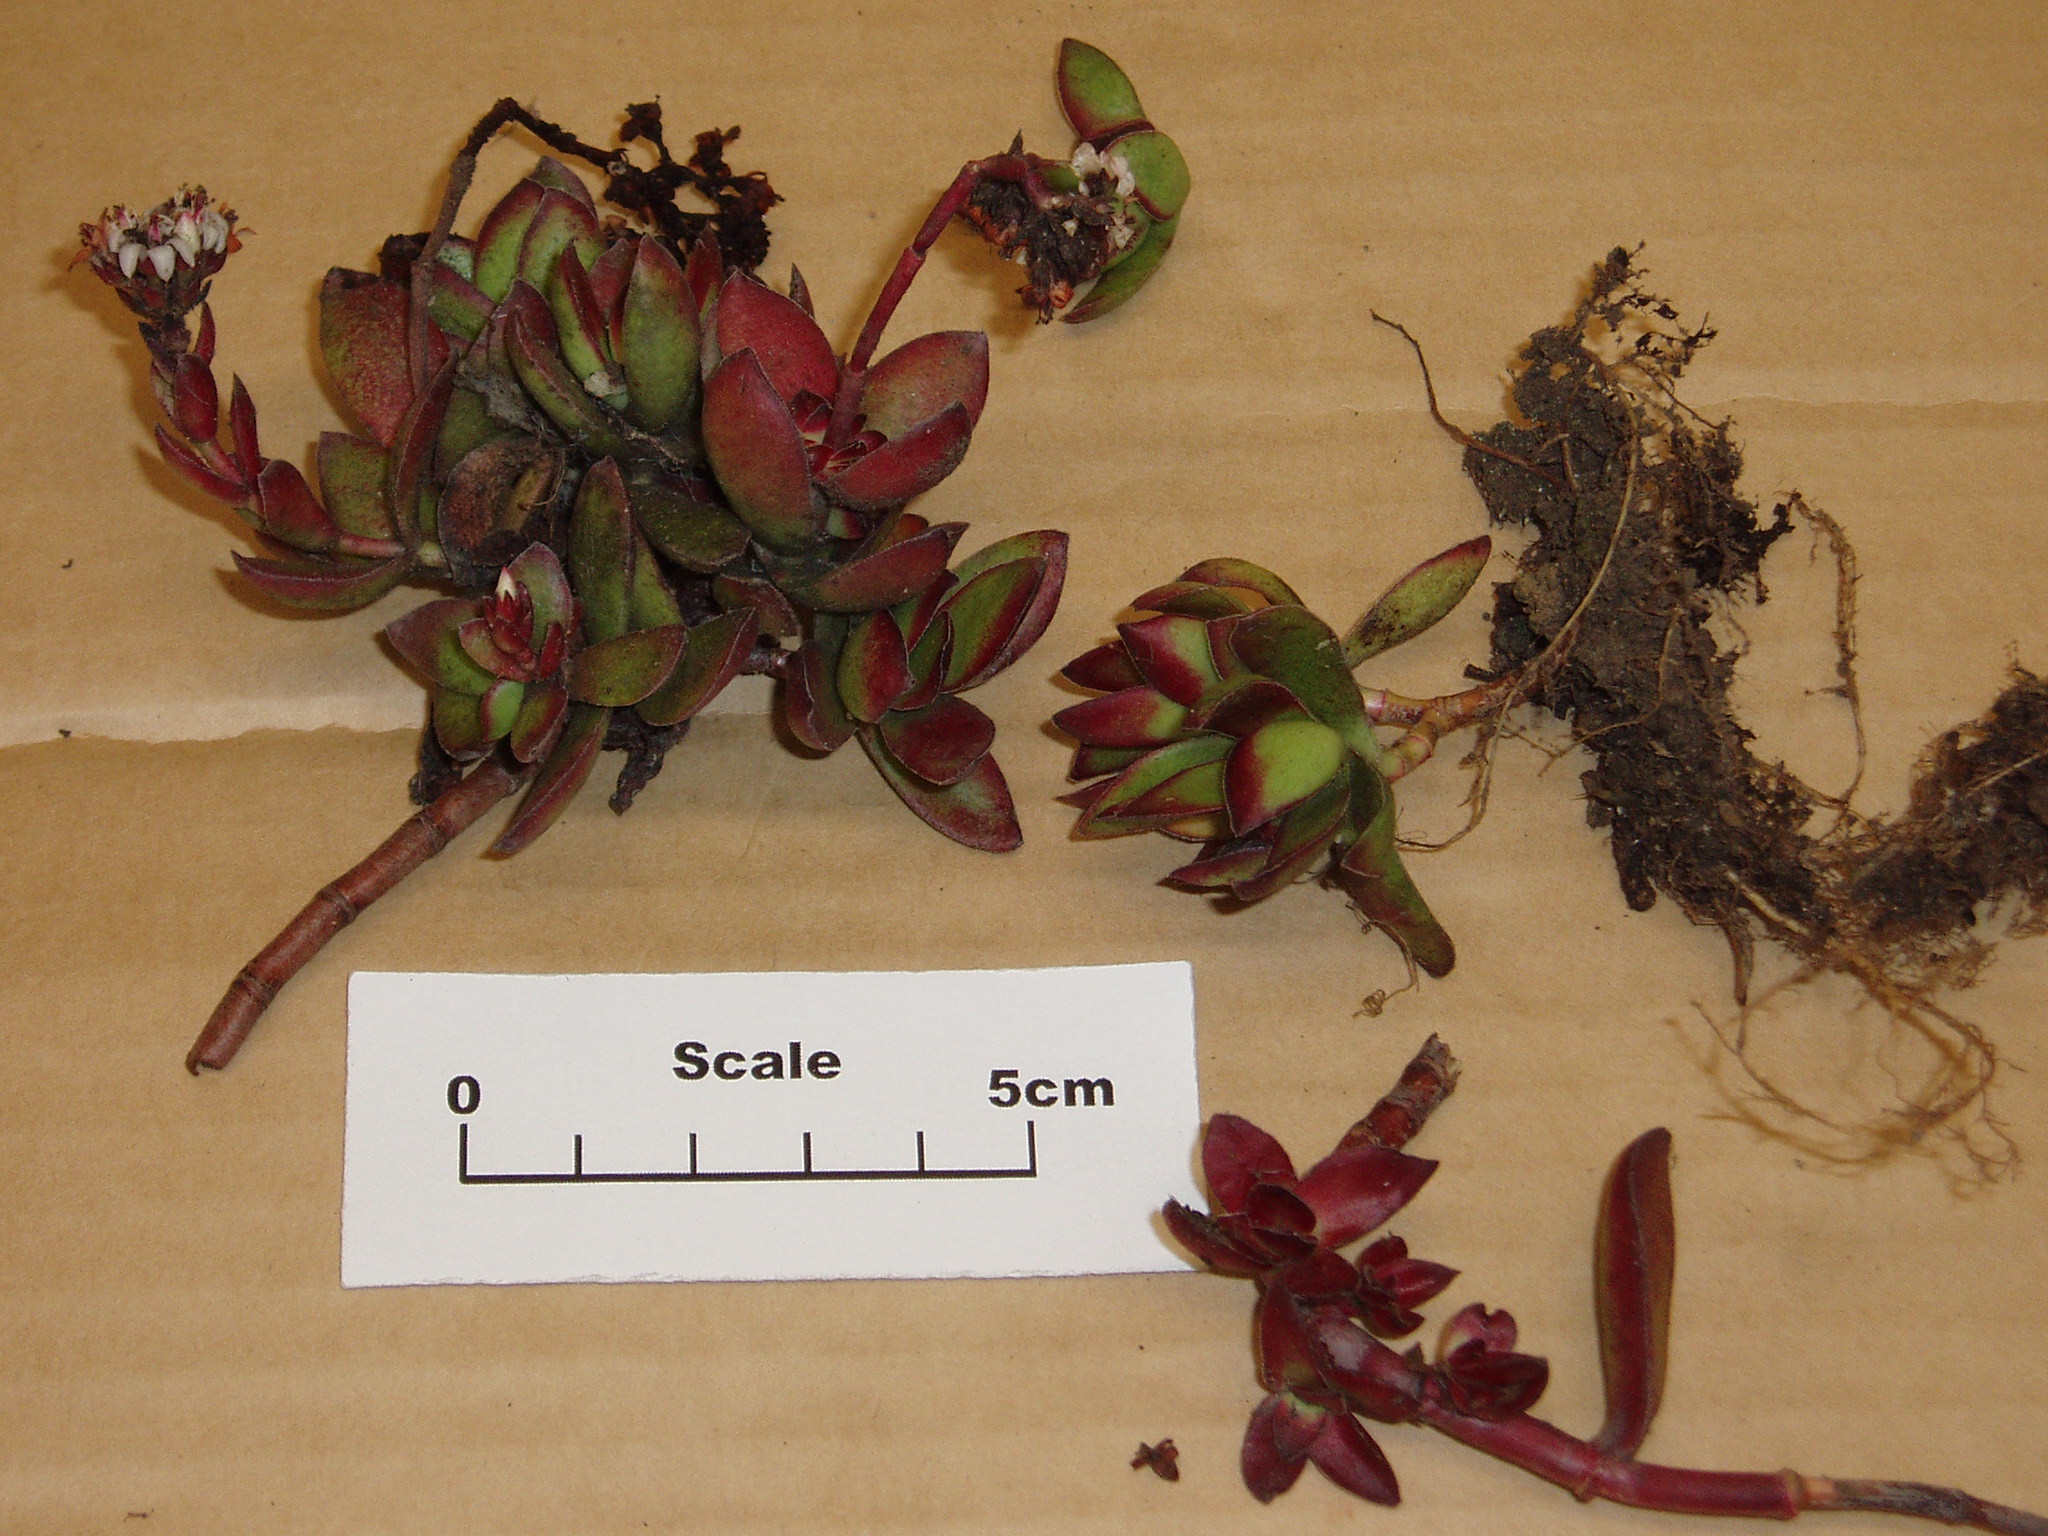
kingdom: Plantae
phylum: Tracheophyta
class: Magnoliopsida
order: Saxifragales
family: Crassulaceae
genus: Crassula
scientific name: Crassula fallax
